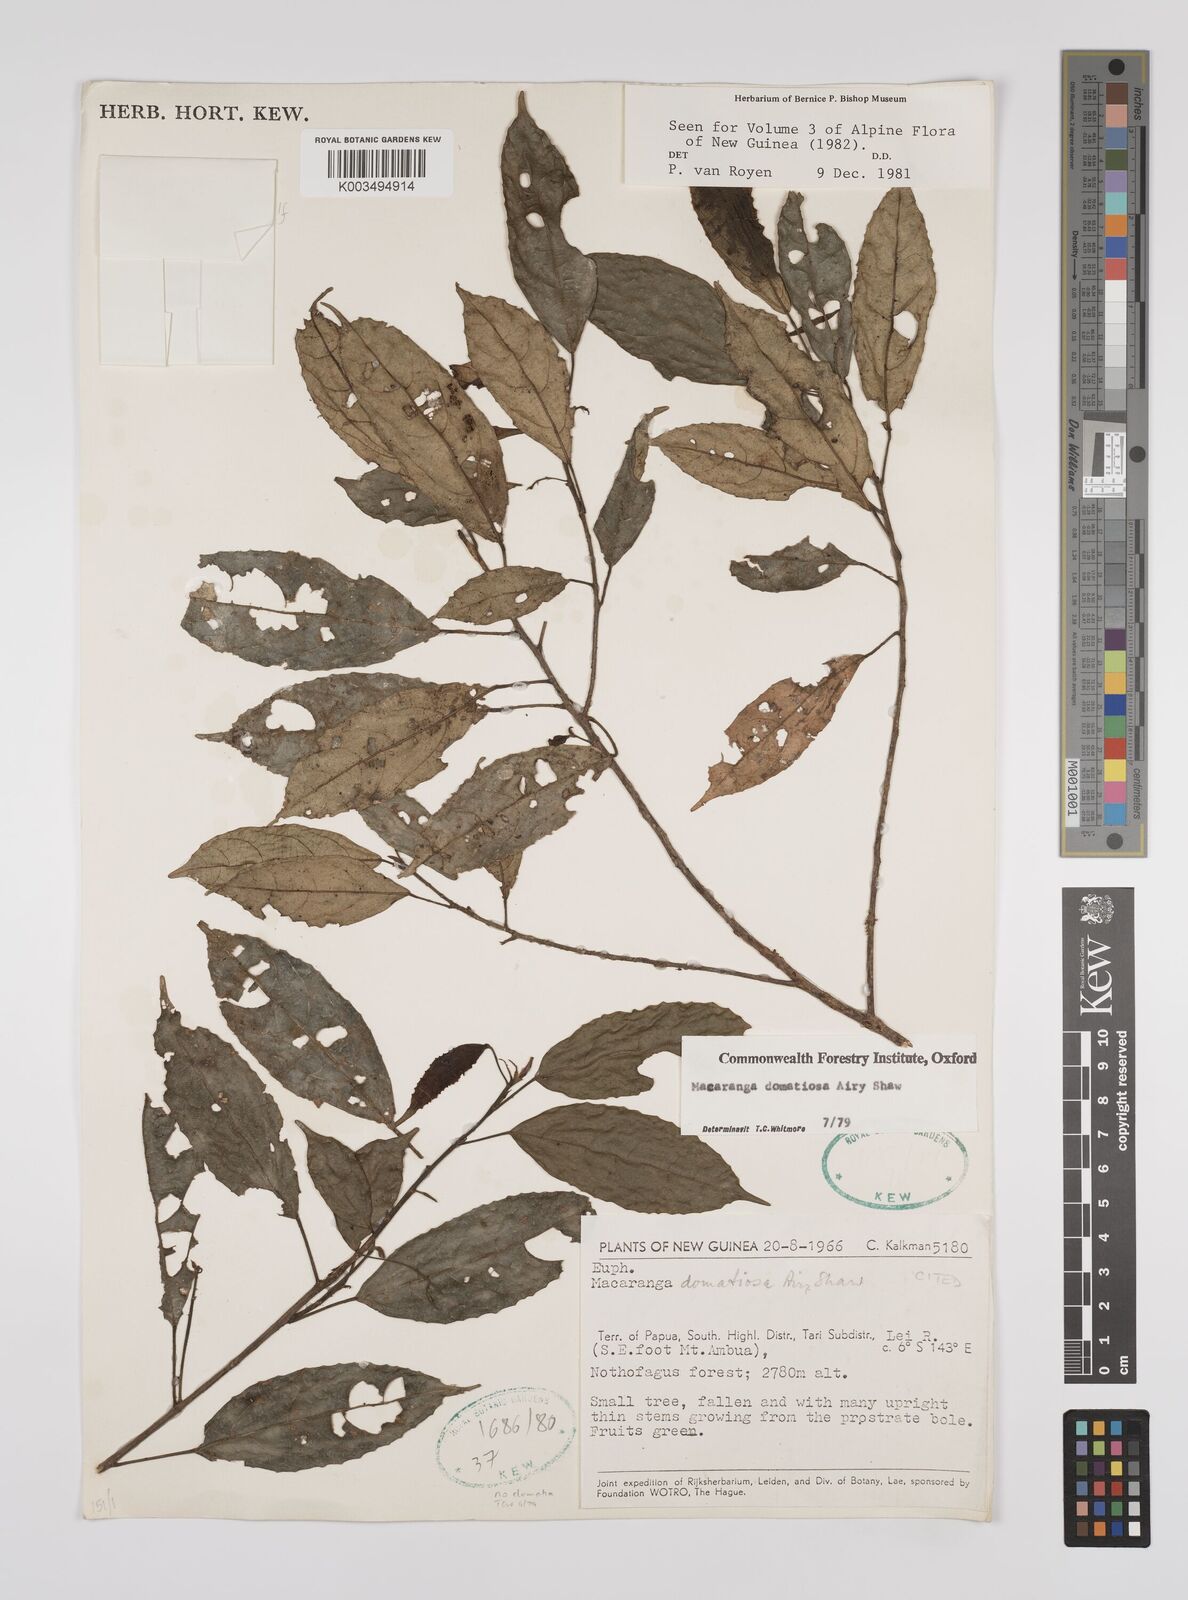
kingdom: Plantae
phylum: Tracheophyta
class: Magnoliopsida
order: Malpighiales
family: Euphorbiaceae
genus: Macaranga
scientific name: Macaranga domatiosa
